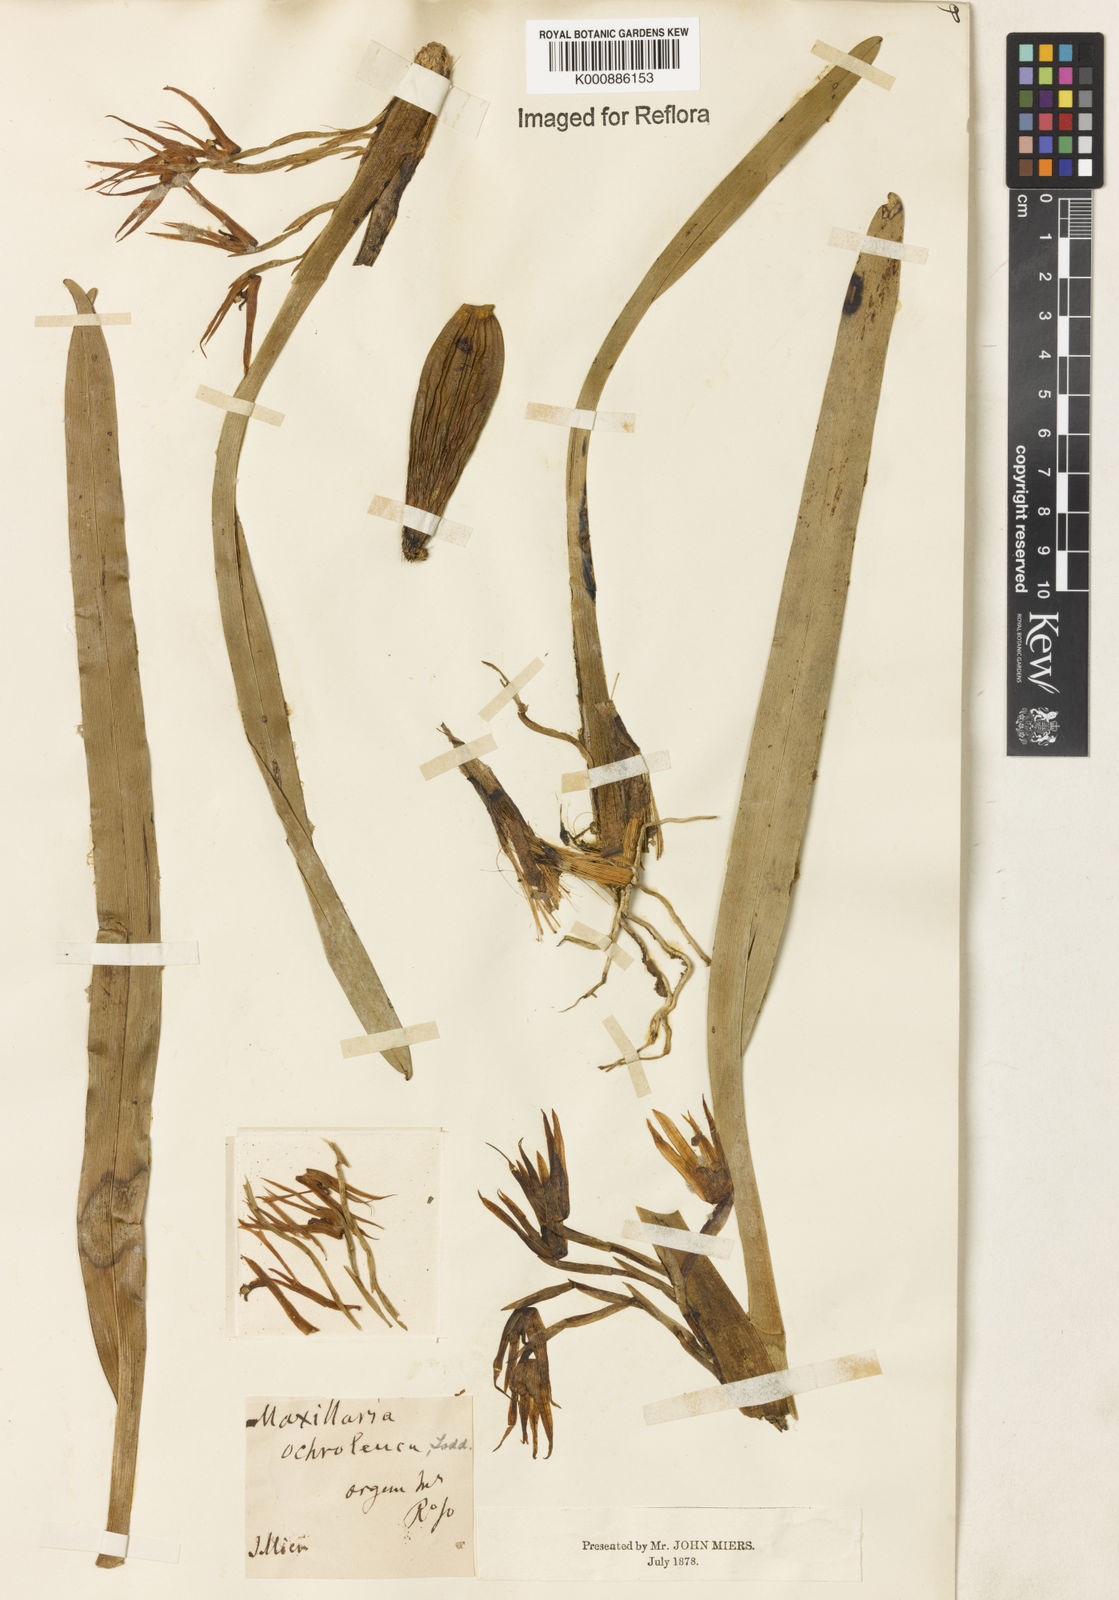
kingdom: Plantae
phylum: Tracheophyta
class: Liliopsida
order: Asparagales
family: Orchidaceae
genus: Maxillaria
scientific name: Maxillaria ochroleuca
